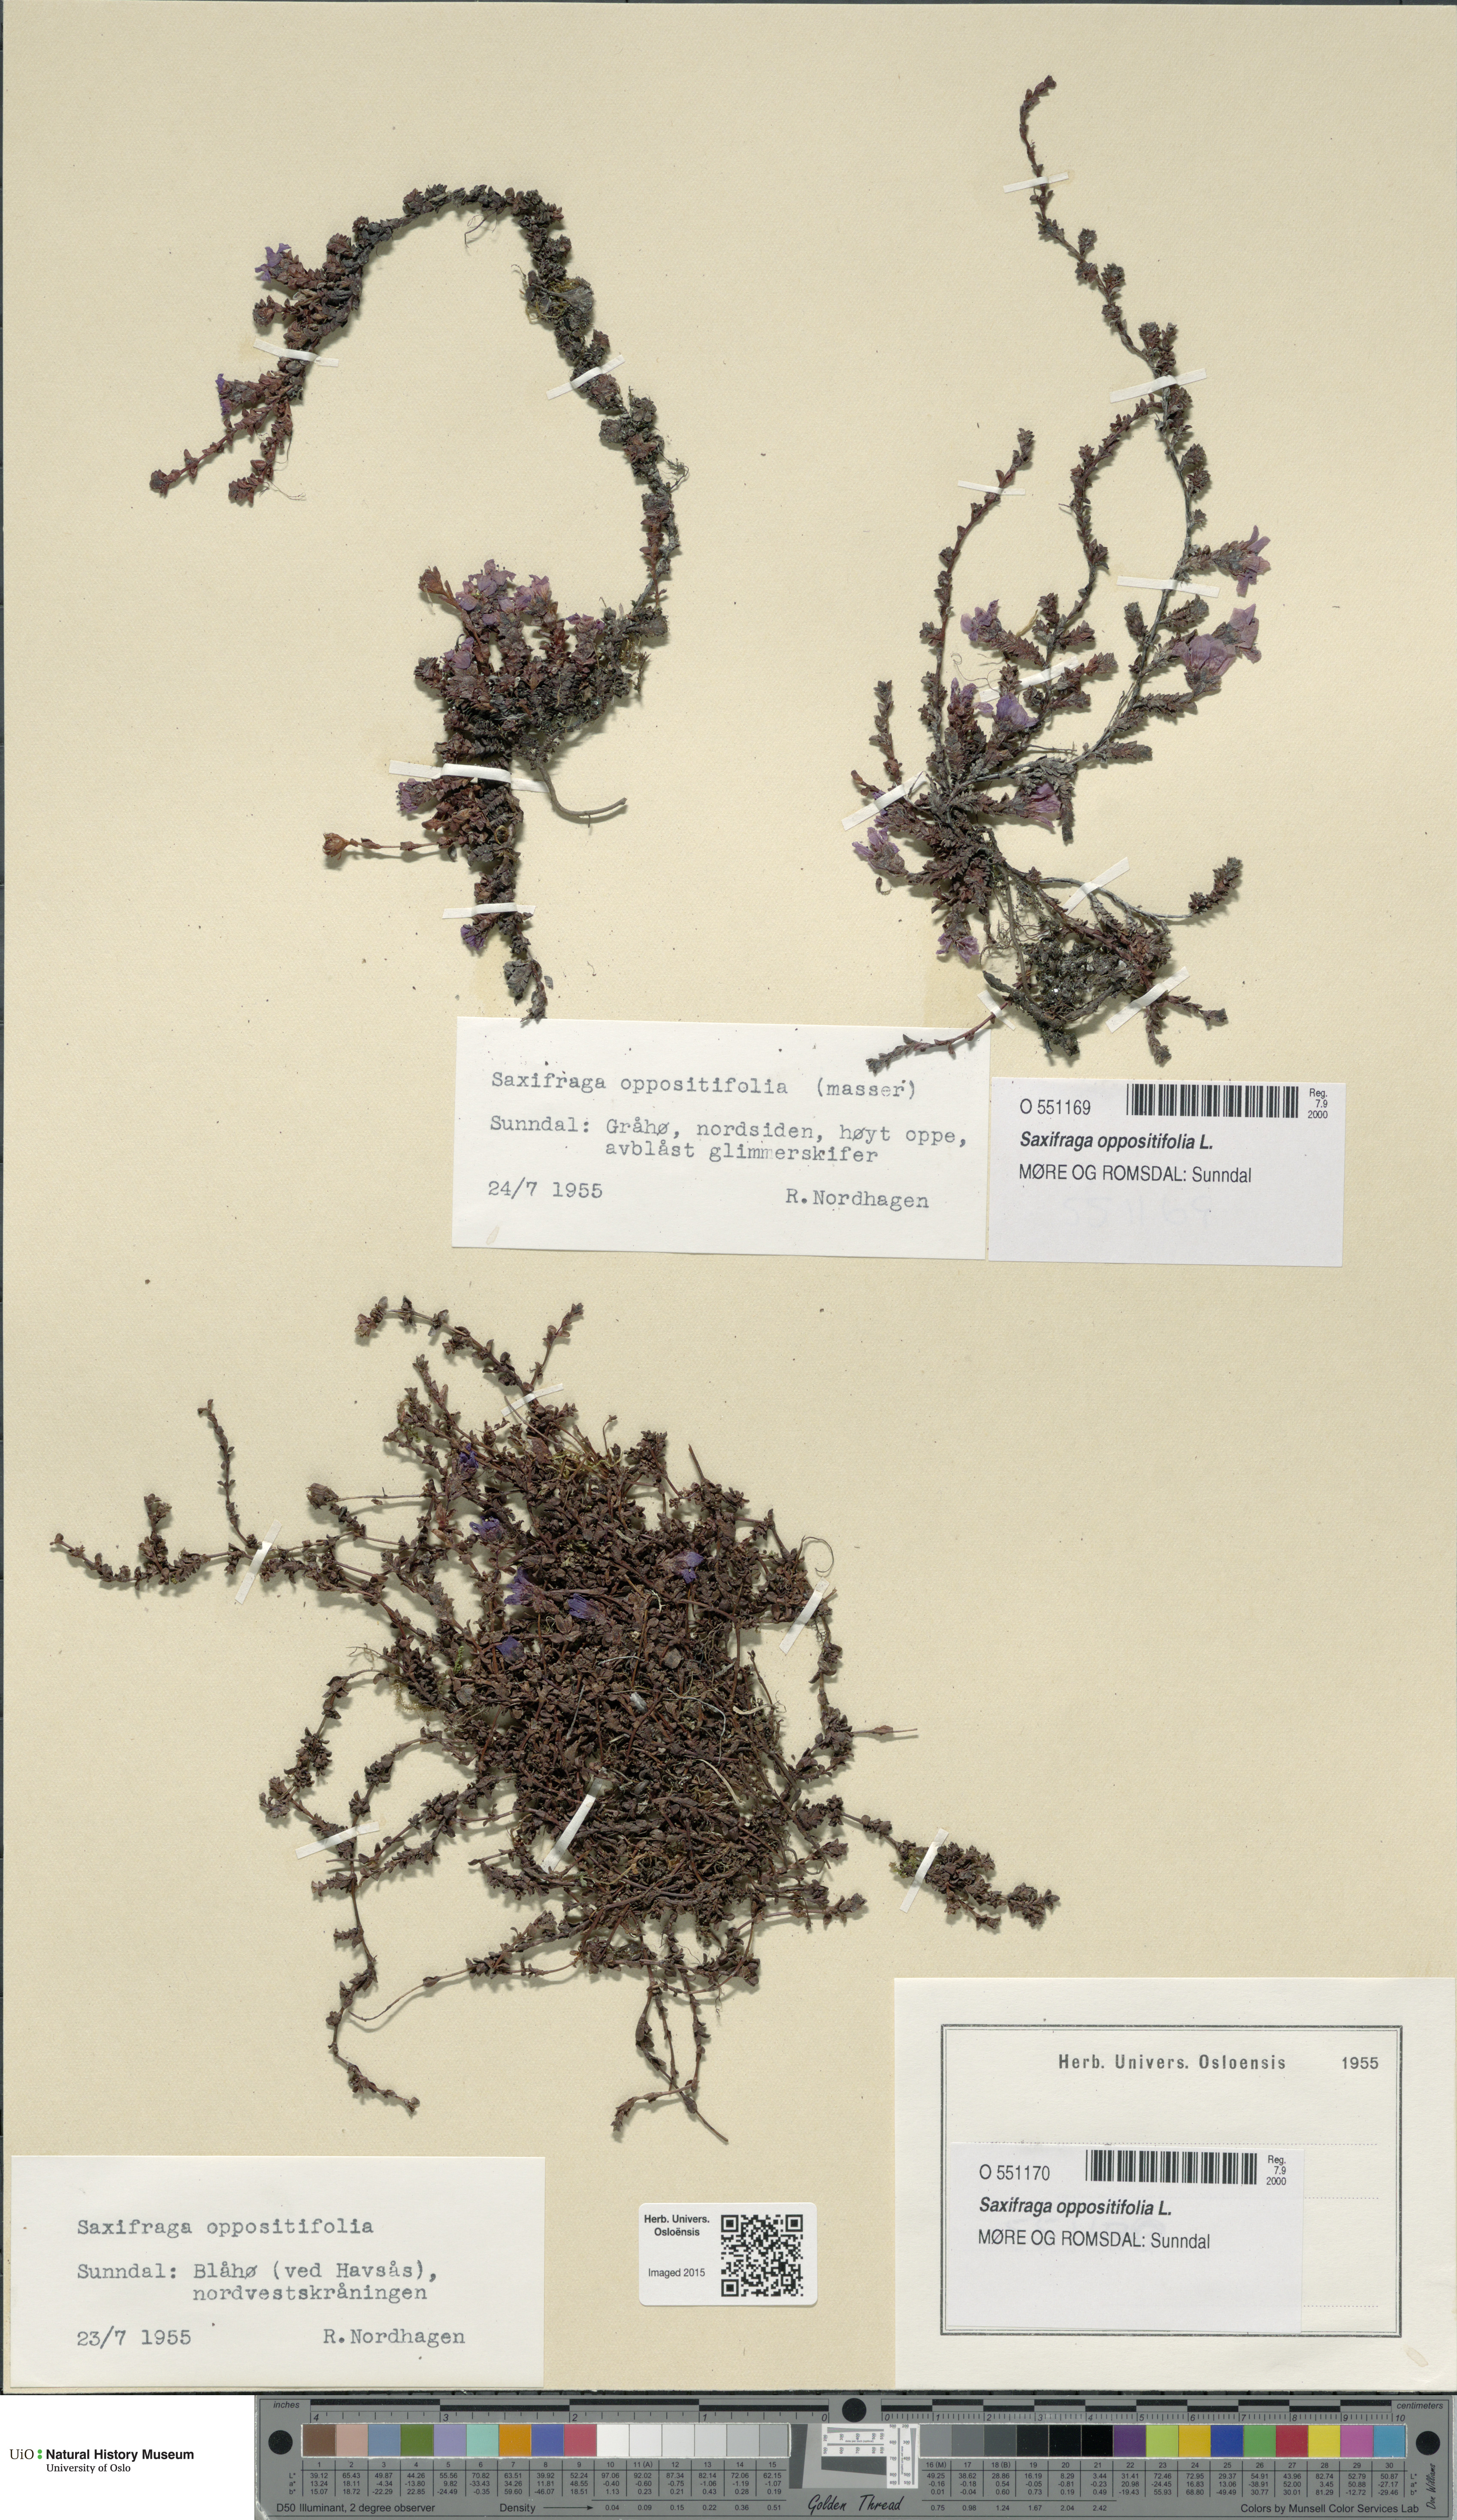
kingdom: Plantae
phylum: Tracheophyta
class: Magnoliopsida
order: Saxifragales
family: Saxifragaceae
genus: Saxifraga
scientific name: Saxifraga oppositifolia
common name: Purple saxifrage
